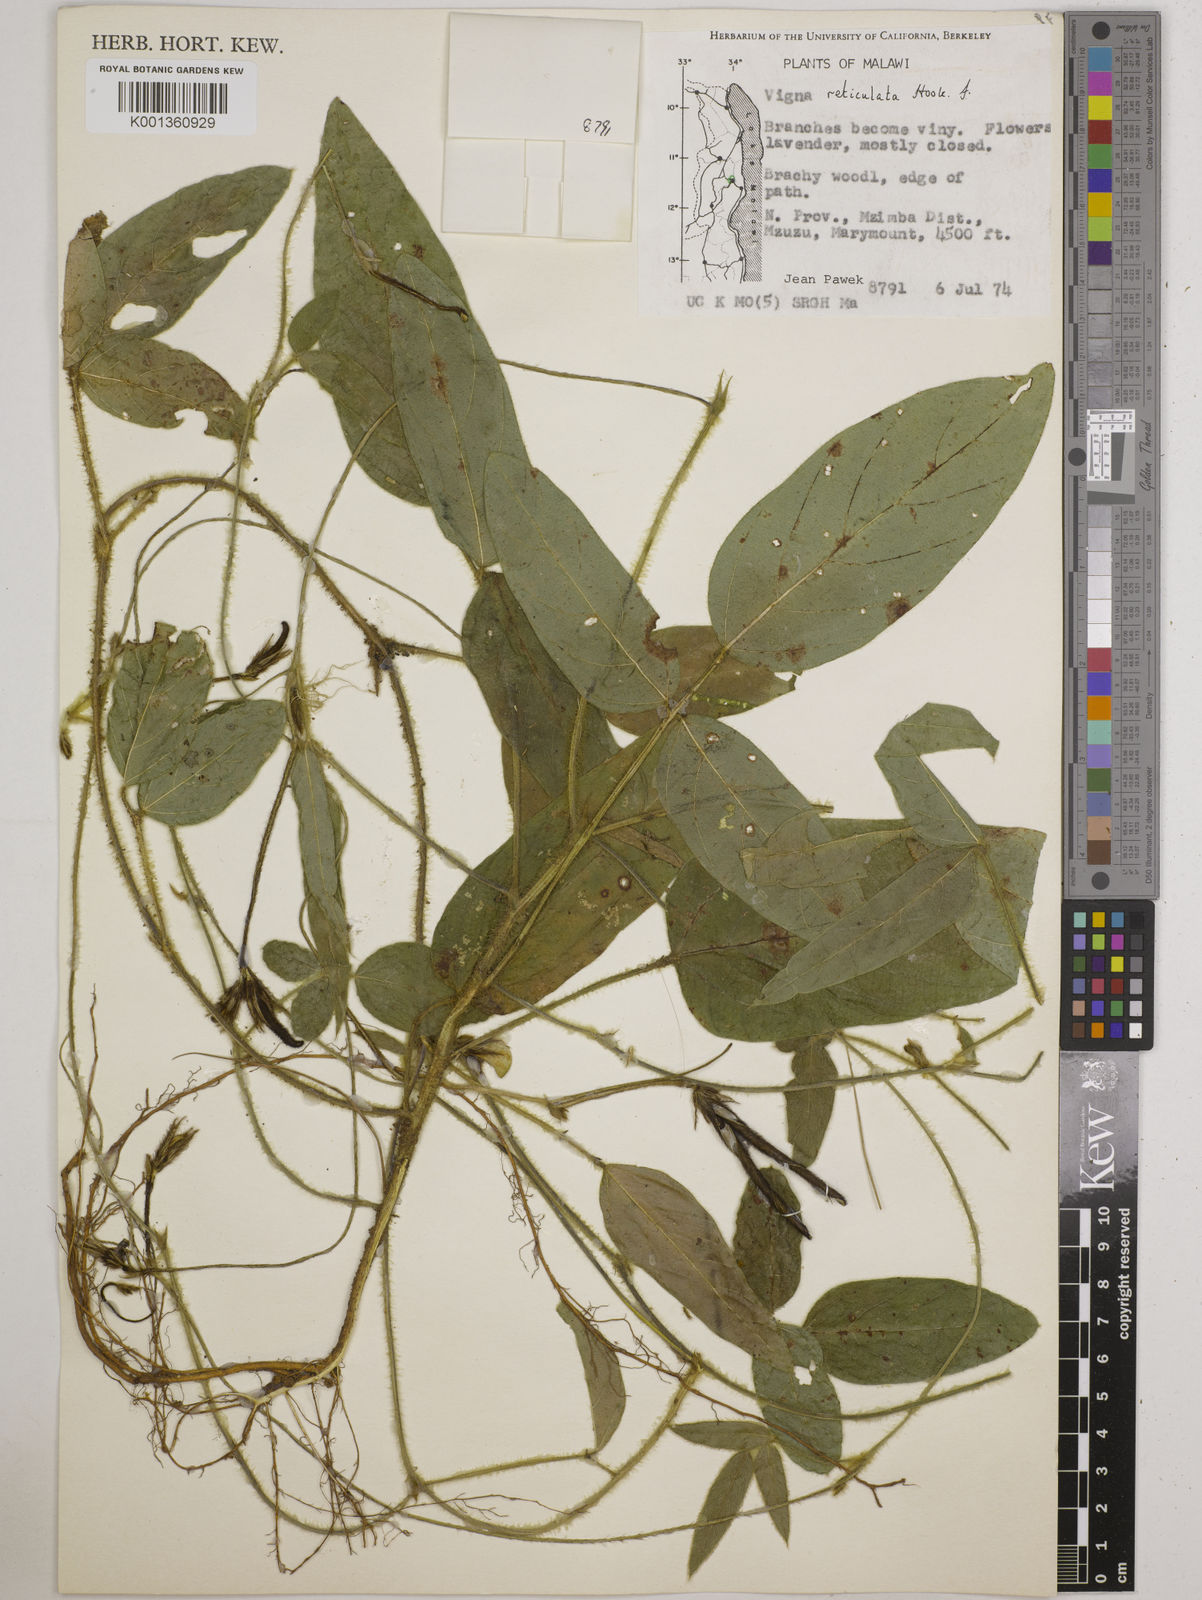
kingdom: Plantae
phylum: Tracheophyta
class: Magnoliopsida
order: Fabales
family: Fabaceae
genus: Vigna
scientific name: Vigna reticulata
